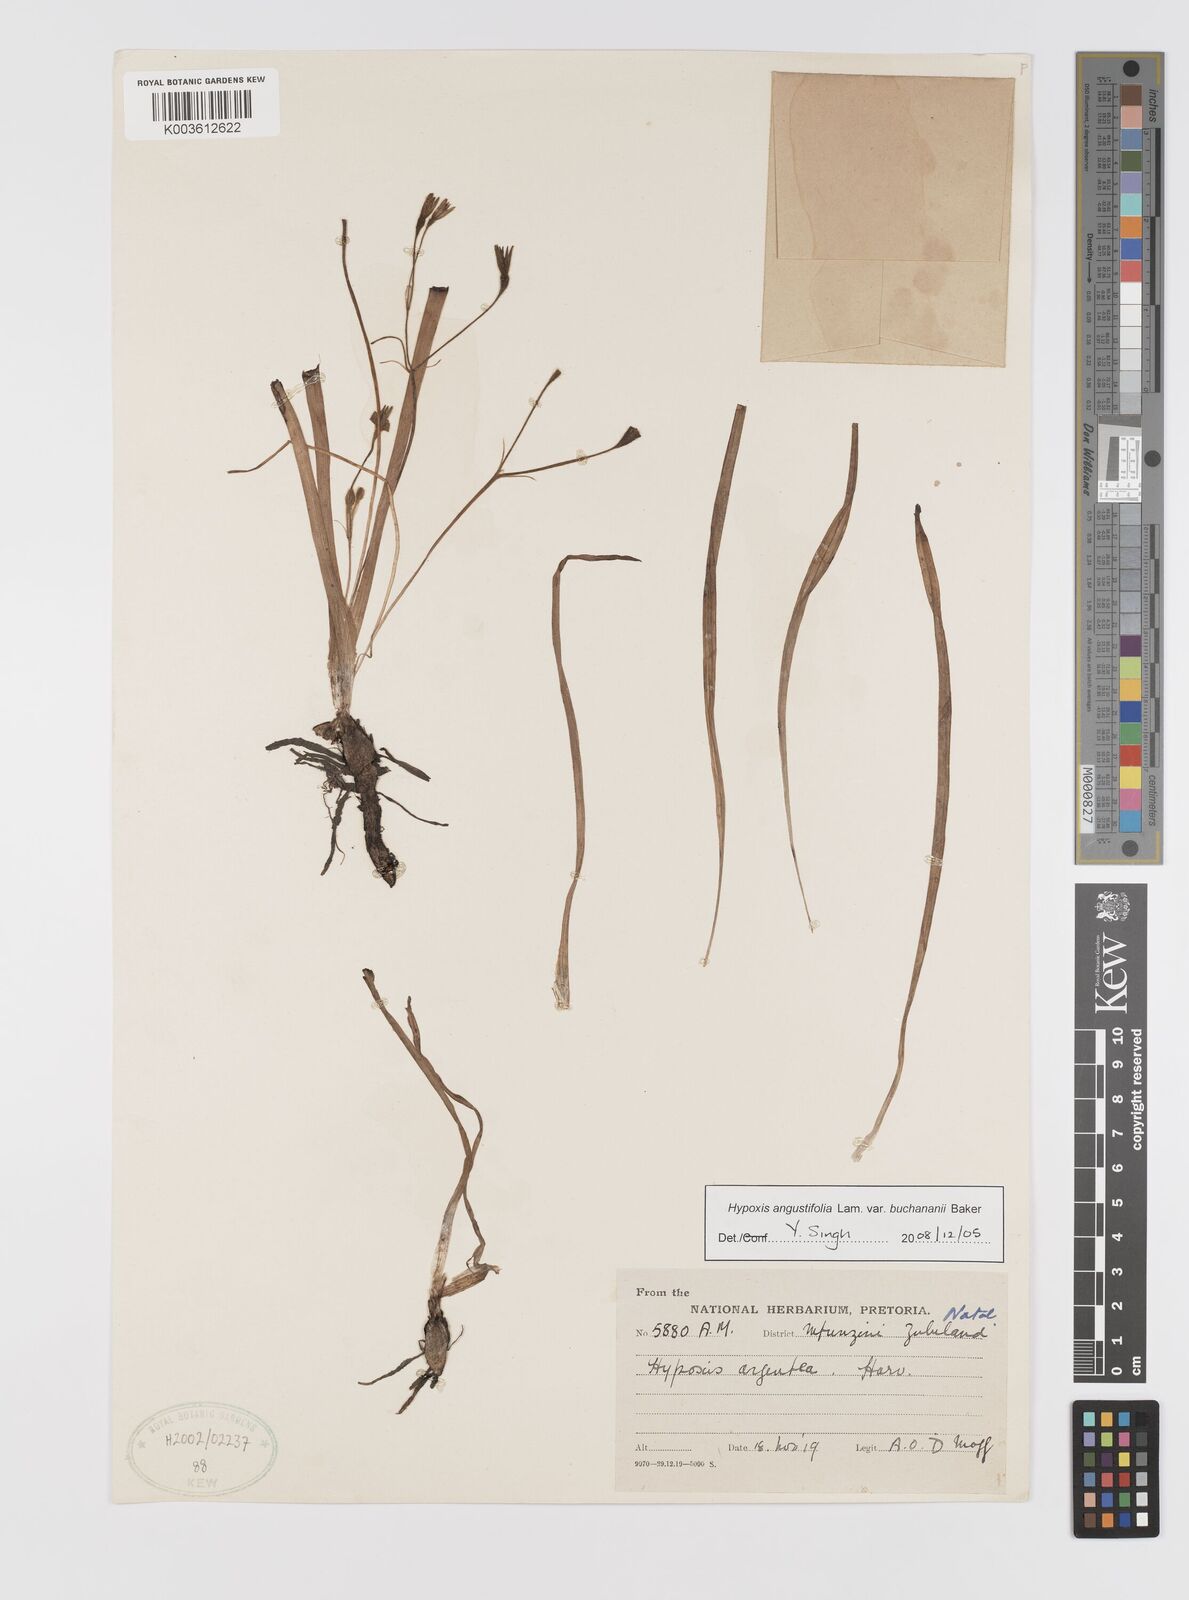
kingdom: Plantae
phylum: Tracheophyta
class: Liliopsida
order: Asparagales
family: Hypoxidaceae
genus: Hypoxis
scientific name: Hypoxis angustifolia
